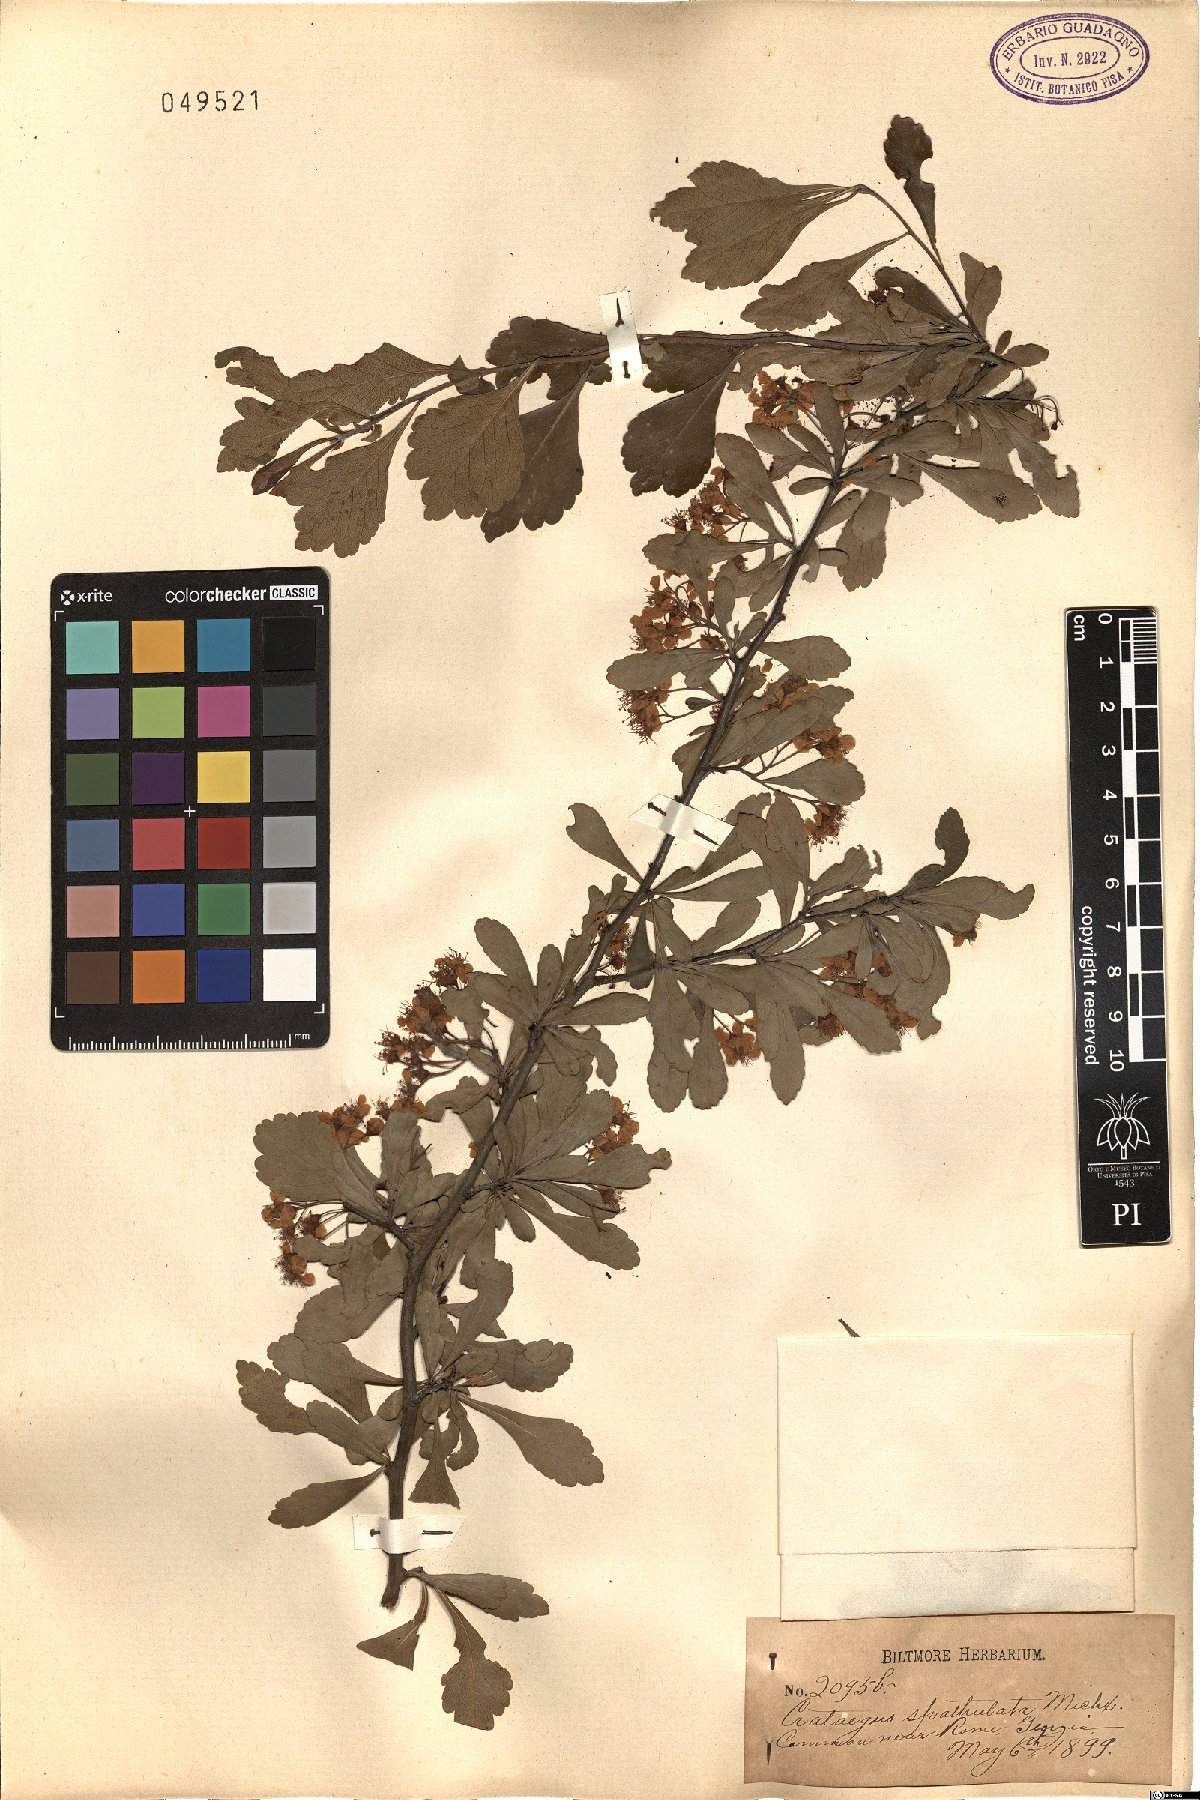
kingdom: Plantae
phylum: Tracheophyta
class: Magnoliopsida
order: Rosales
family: Rosaceae
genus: Crataegus
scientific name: Crataegus spathulata
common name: Littlehip hawthorn
